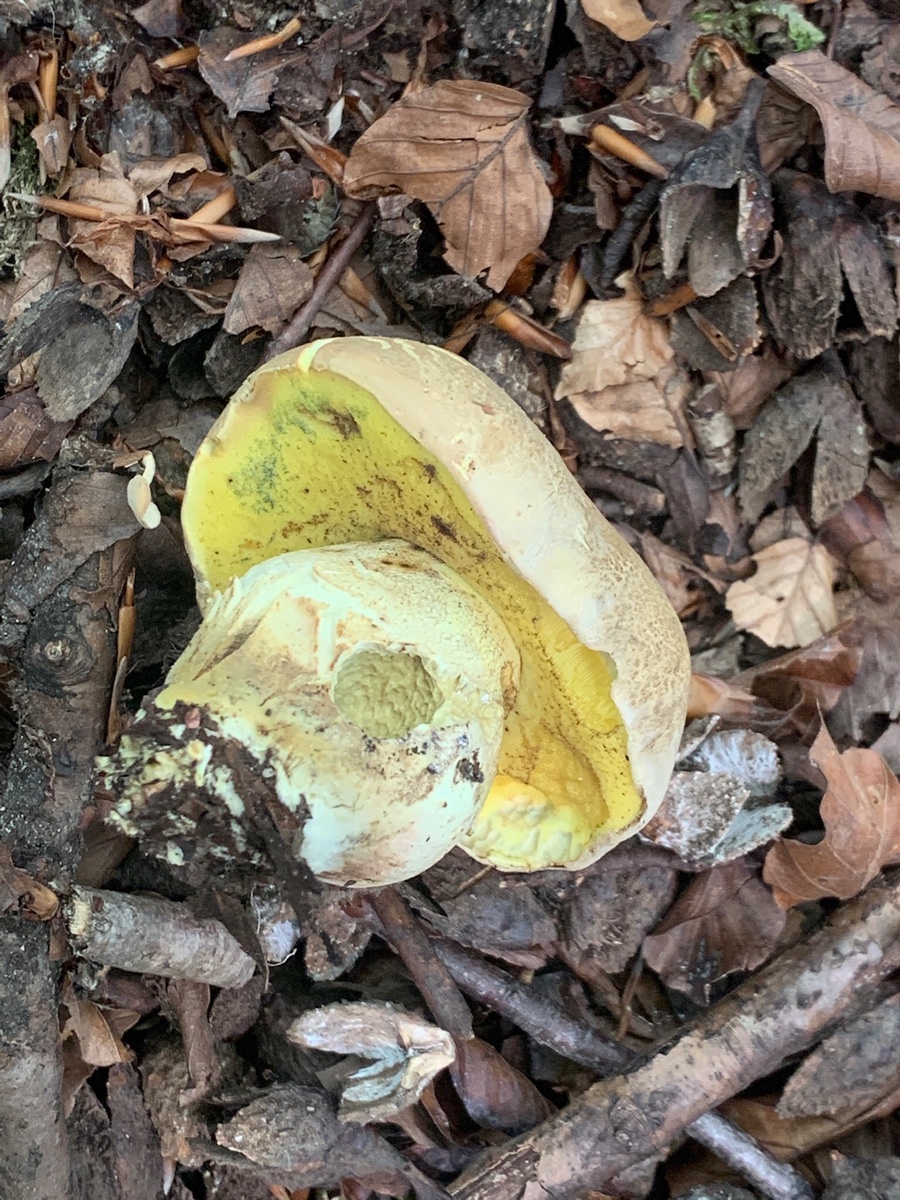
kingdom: Fungi
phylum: Basidiomycota
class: Agaricomycetes
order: Boletales
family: Boletaceae
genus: Caloboletus
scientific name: Caloboletus radicans
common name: rod-rørhat
